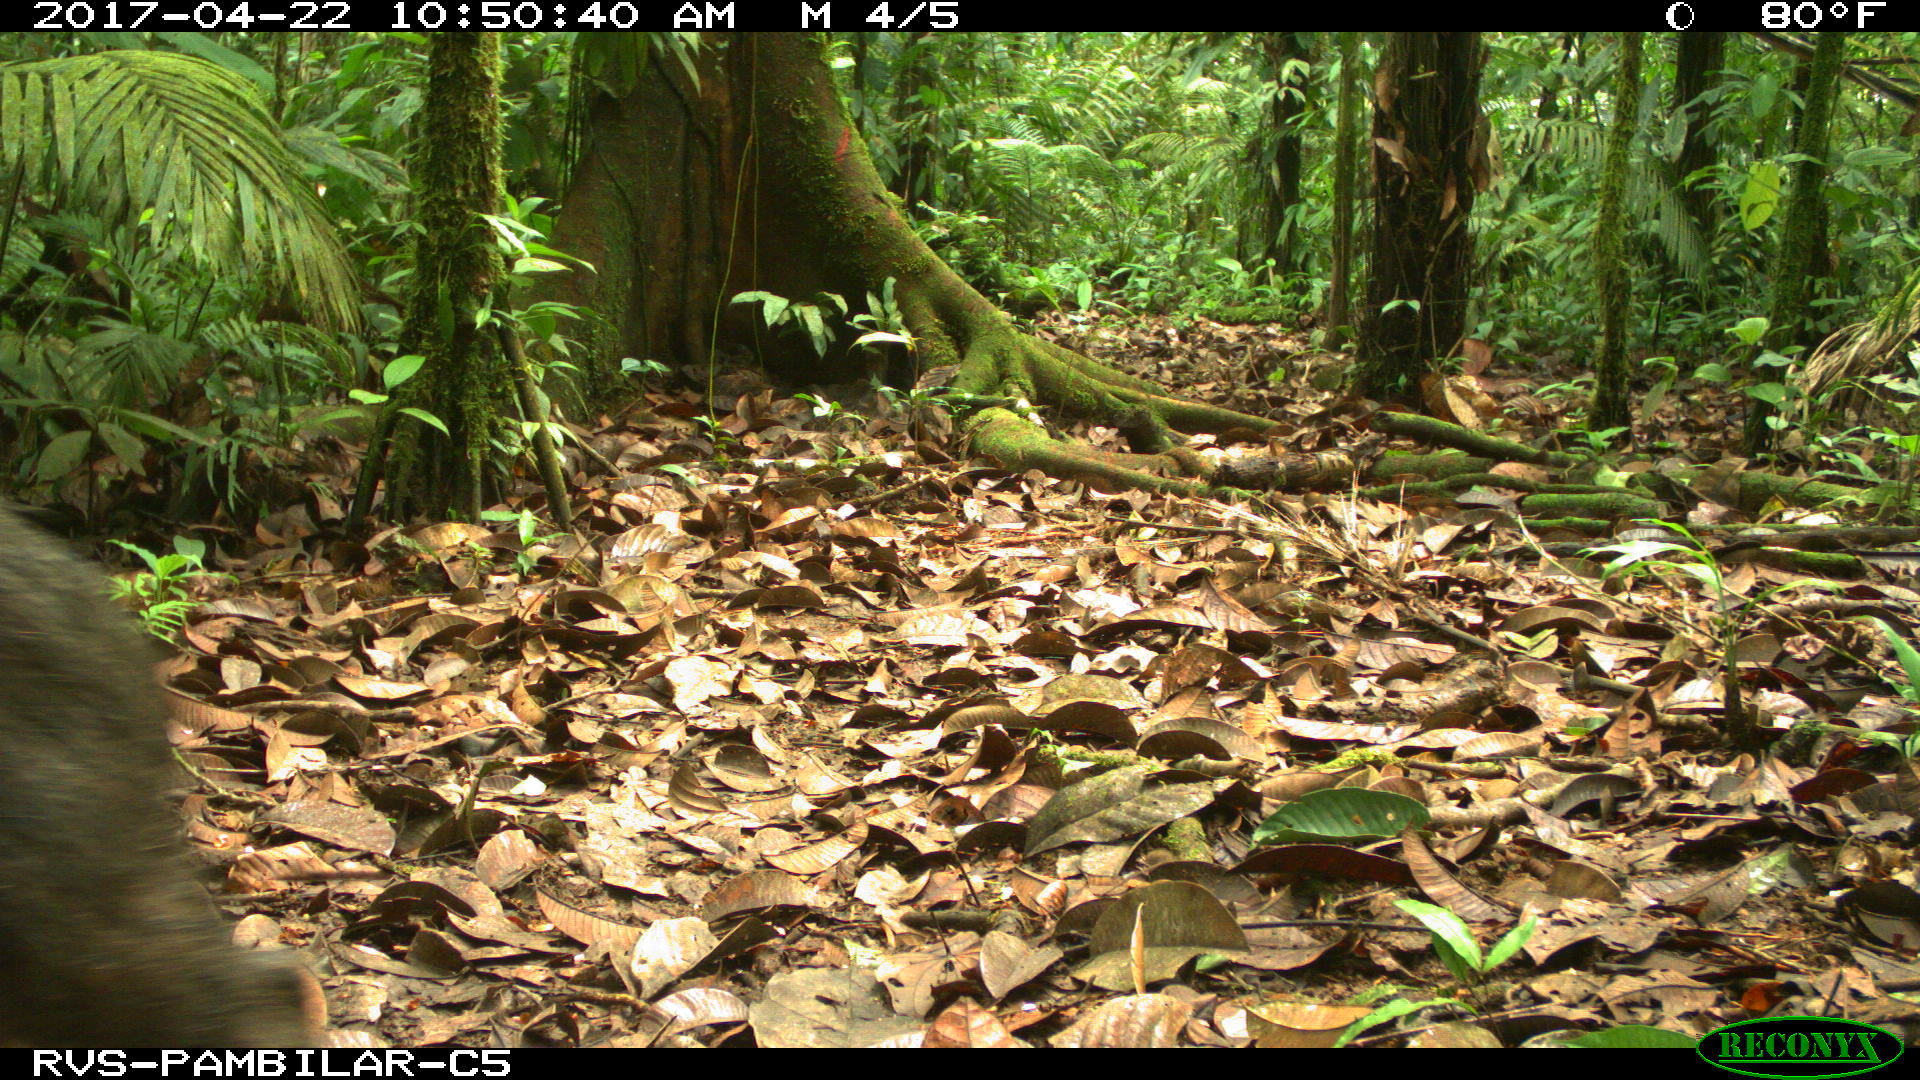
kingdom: Animalia
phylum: Chordata
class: Mammalia
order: Artiodactyla
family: Tayassuidae
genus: Tayassu
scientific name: Tayassu pecari
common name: White-lipped peccary
